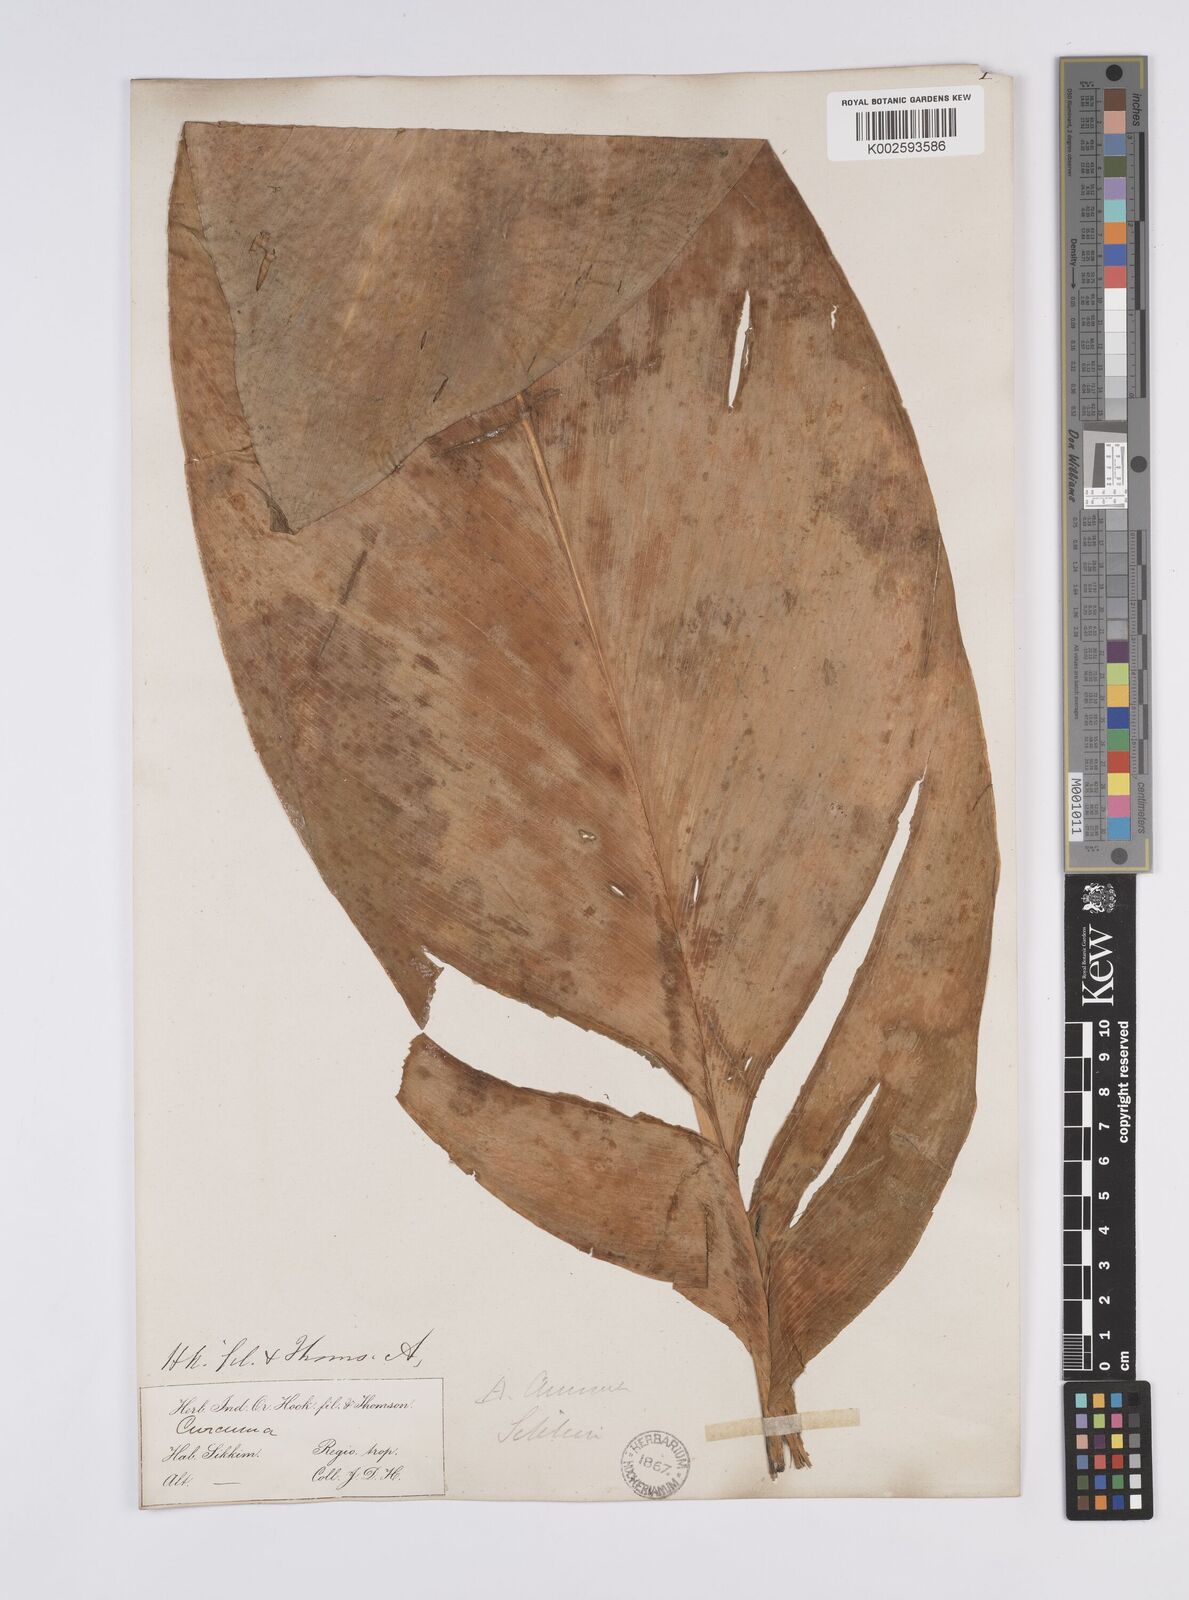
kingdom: Plantae
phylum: Tracheophyta
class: Liliopsida
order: Zingiberales
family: Zingiberaceae
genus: Curcuma
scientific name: Curcuma aromatica
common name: Wild turmeric
